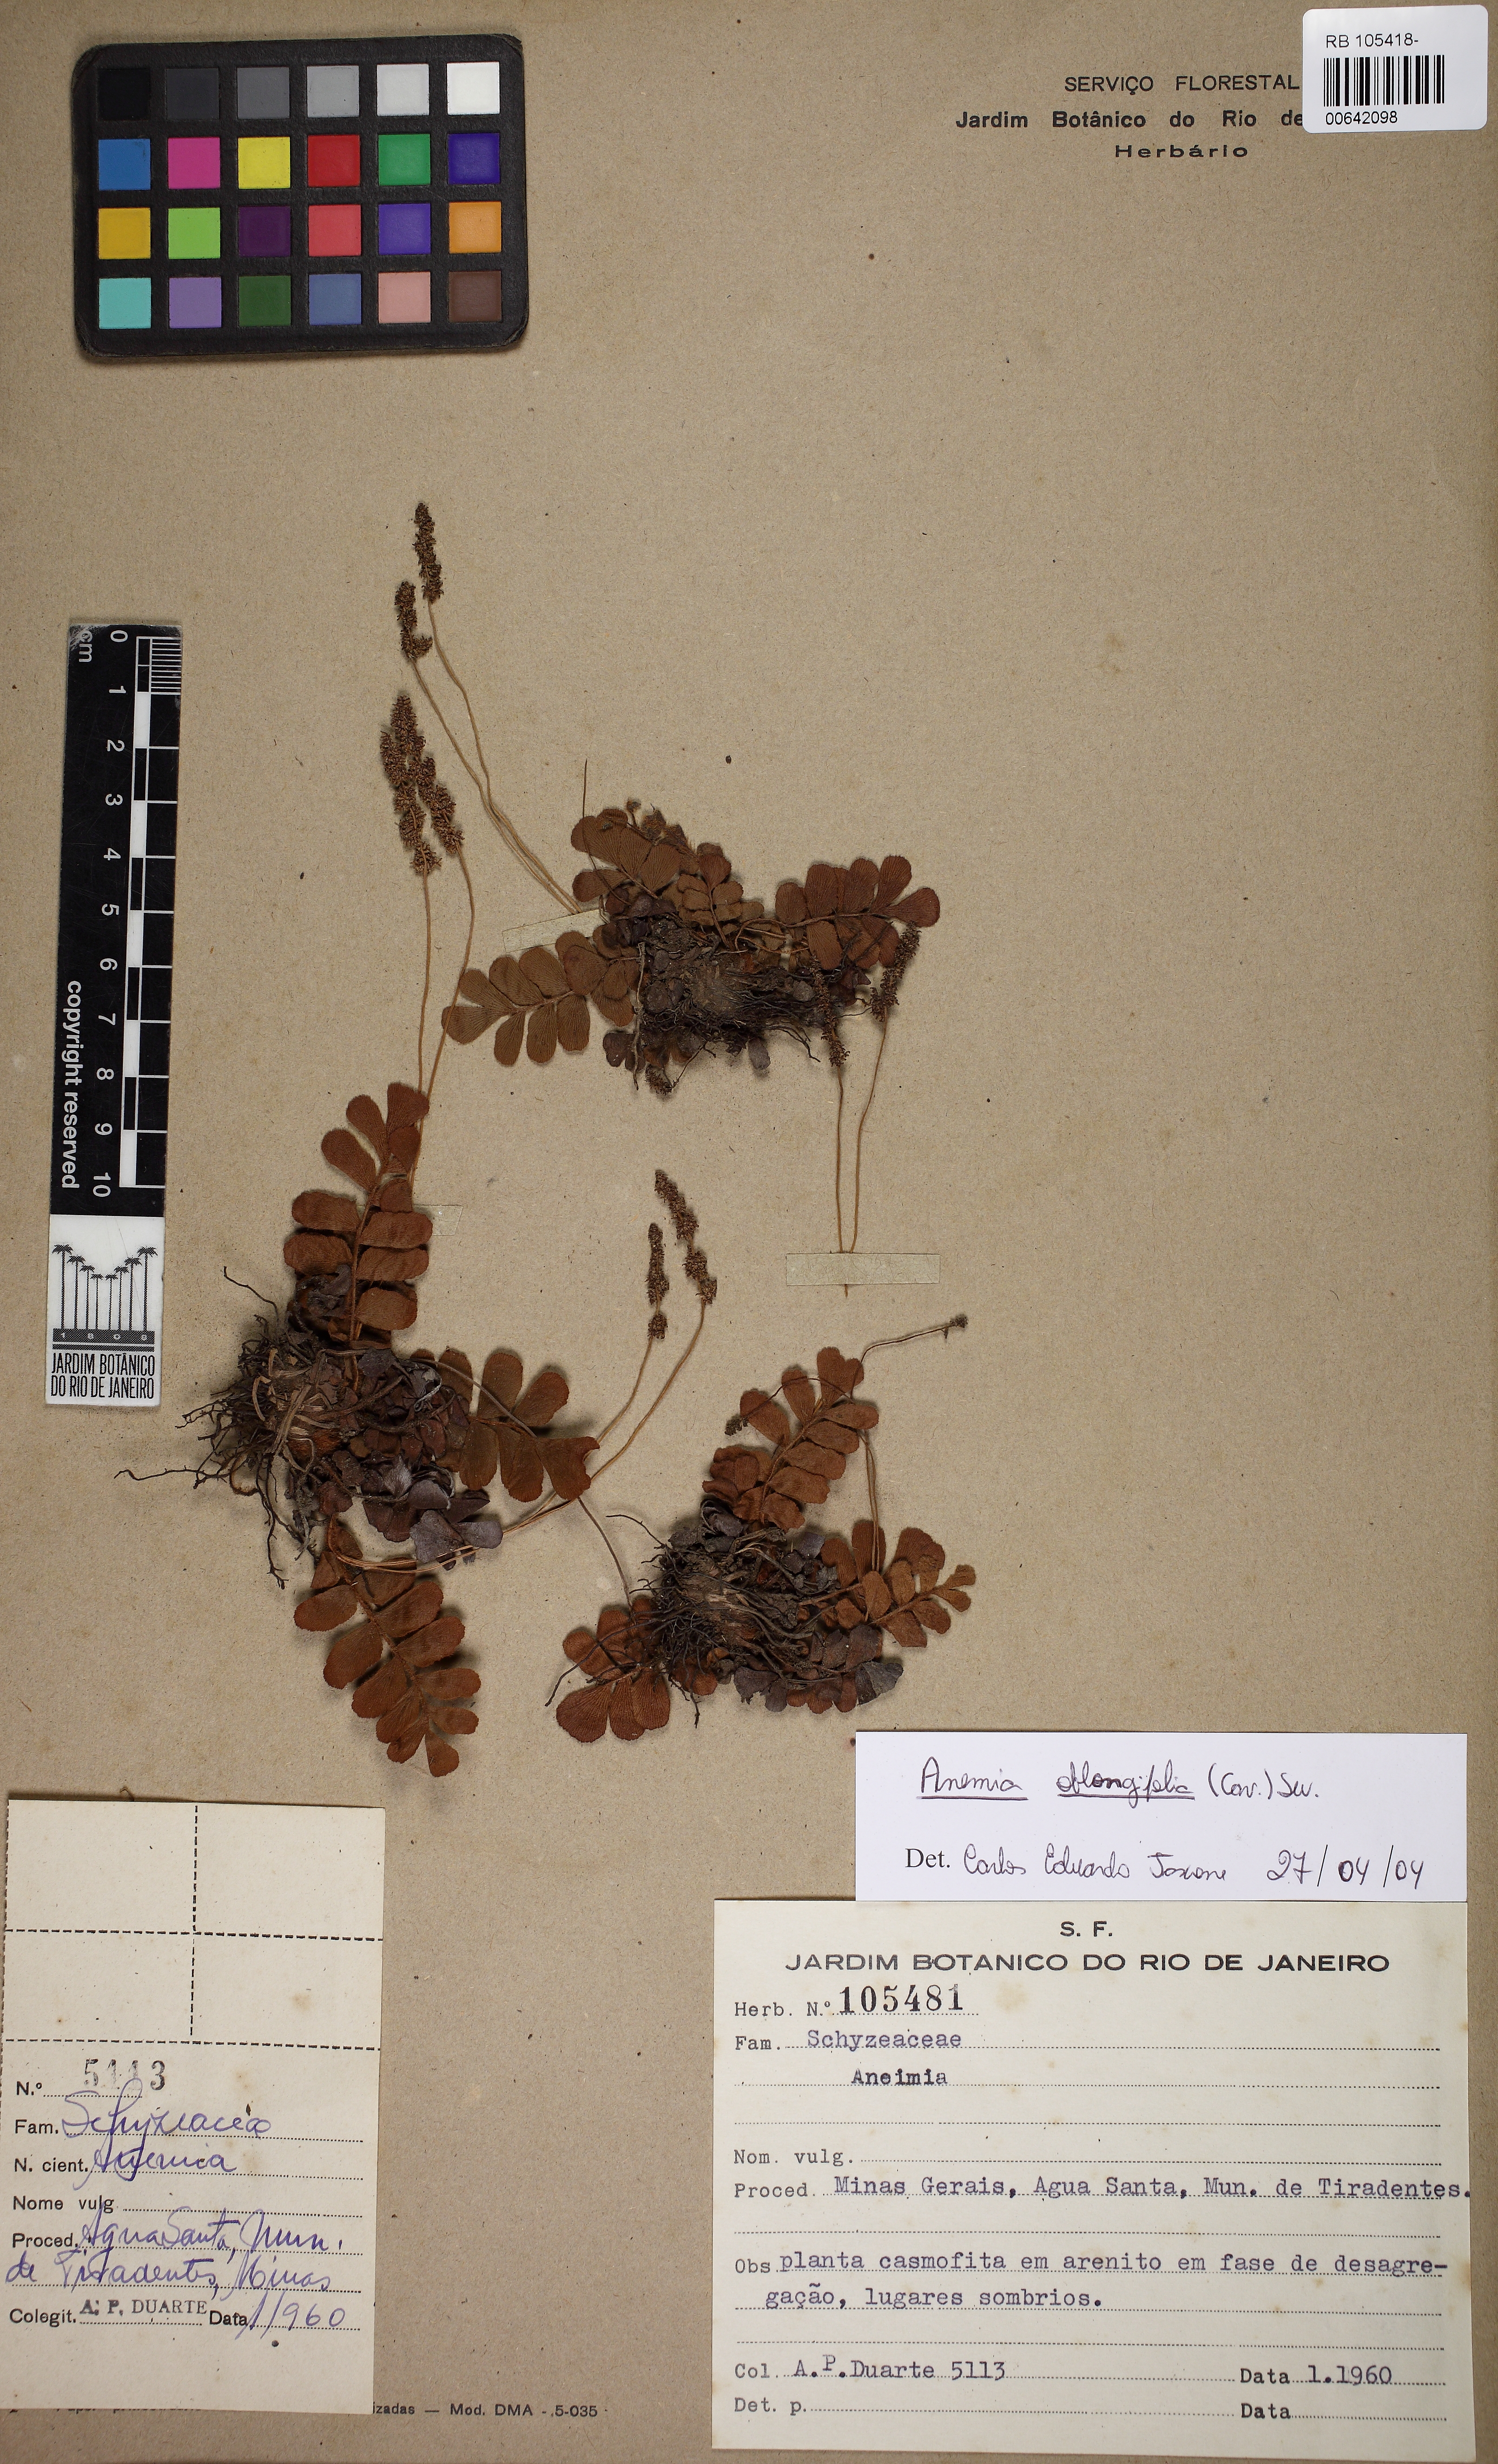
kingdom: Plantae
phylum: Tracheophyta
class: Polypodiopsida
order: Polypodiales
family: Aspleniaceae
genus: Asplenium
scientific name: Asplenium pseudonitidum
